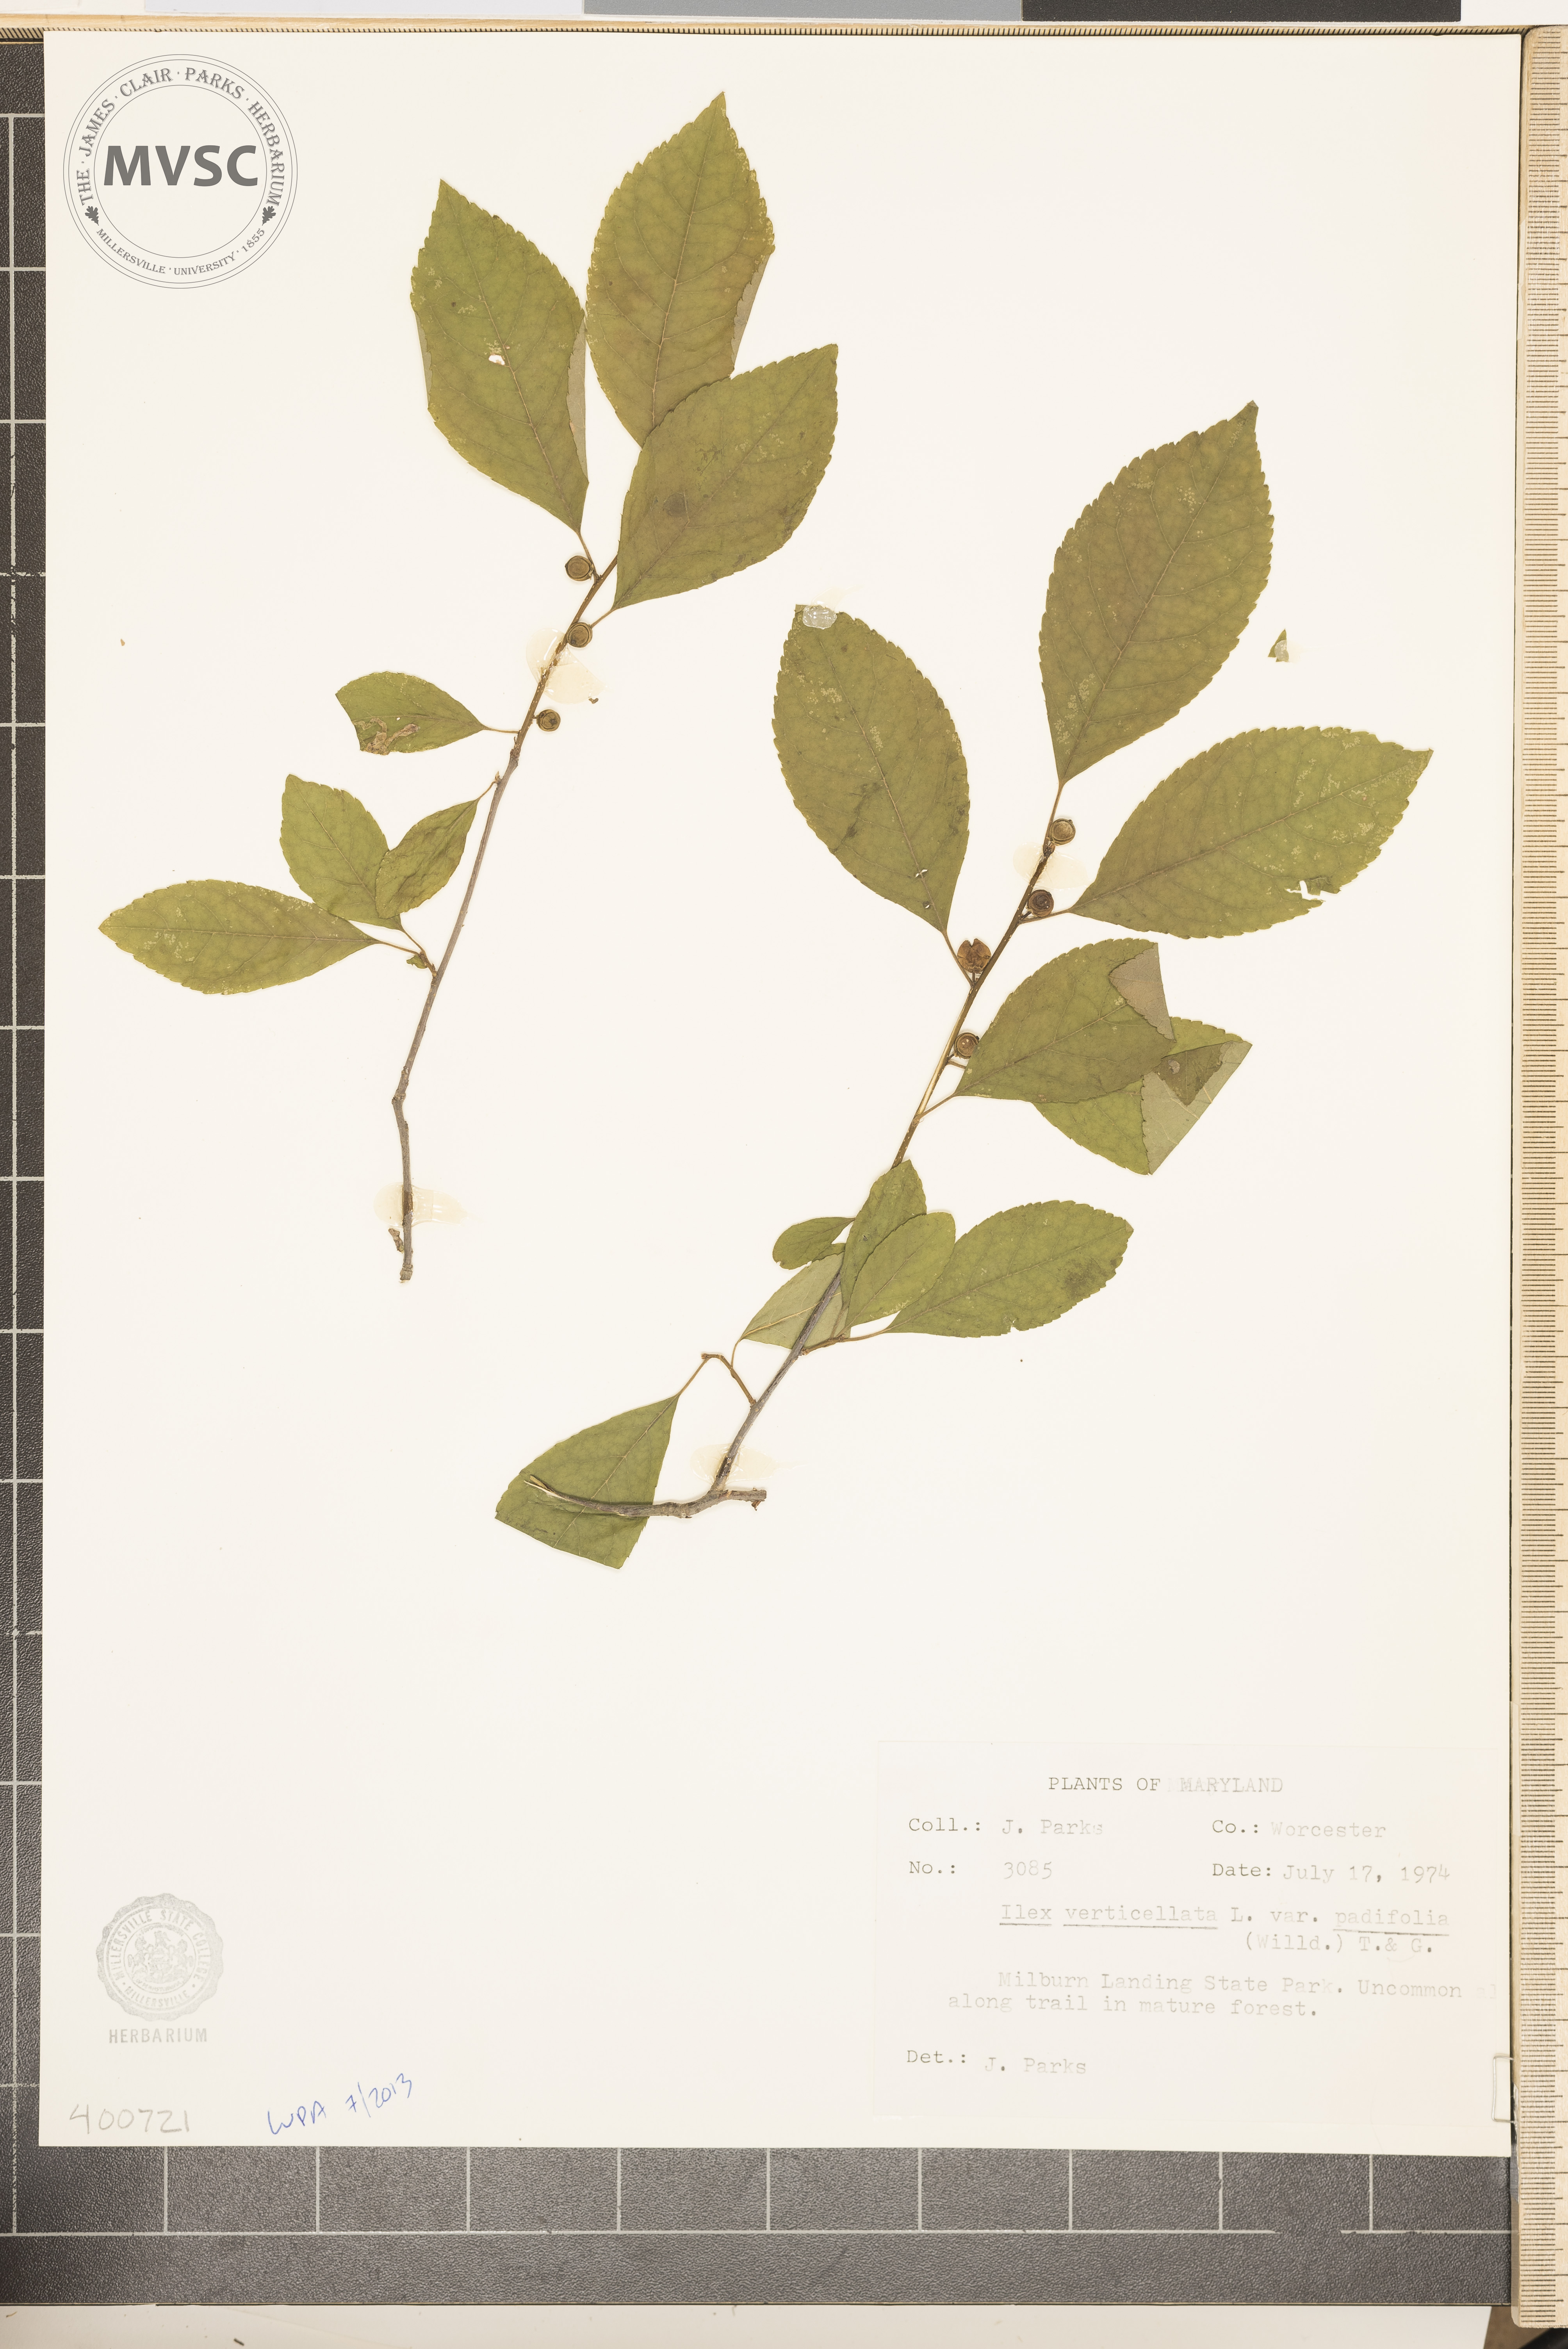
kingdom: Plantae
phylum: Tracheophyta
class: Magnoliopsida
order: Aquifoliales
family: Aquifoliaceae
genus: Ilex
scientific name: Ilex verticillata
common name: Virginia winterberry
